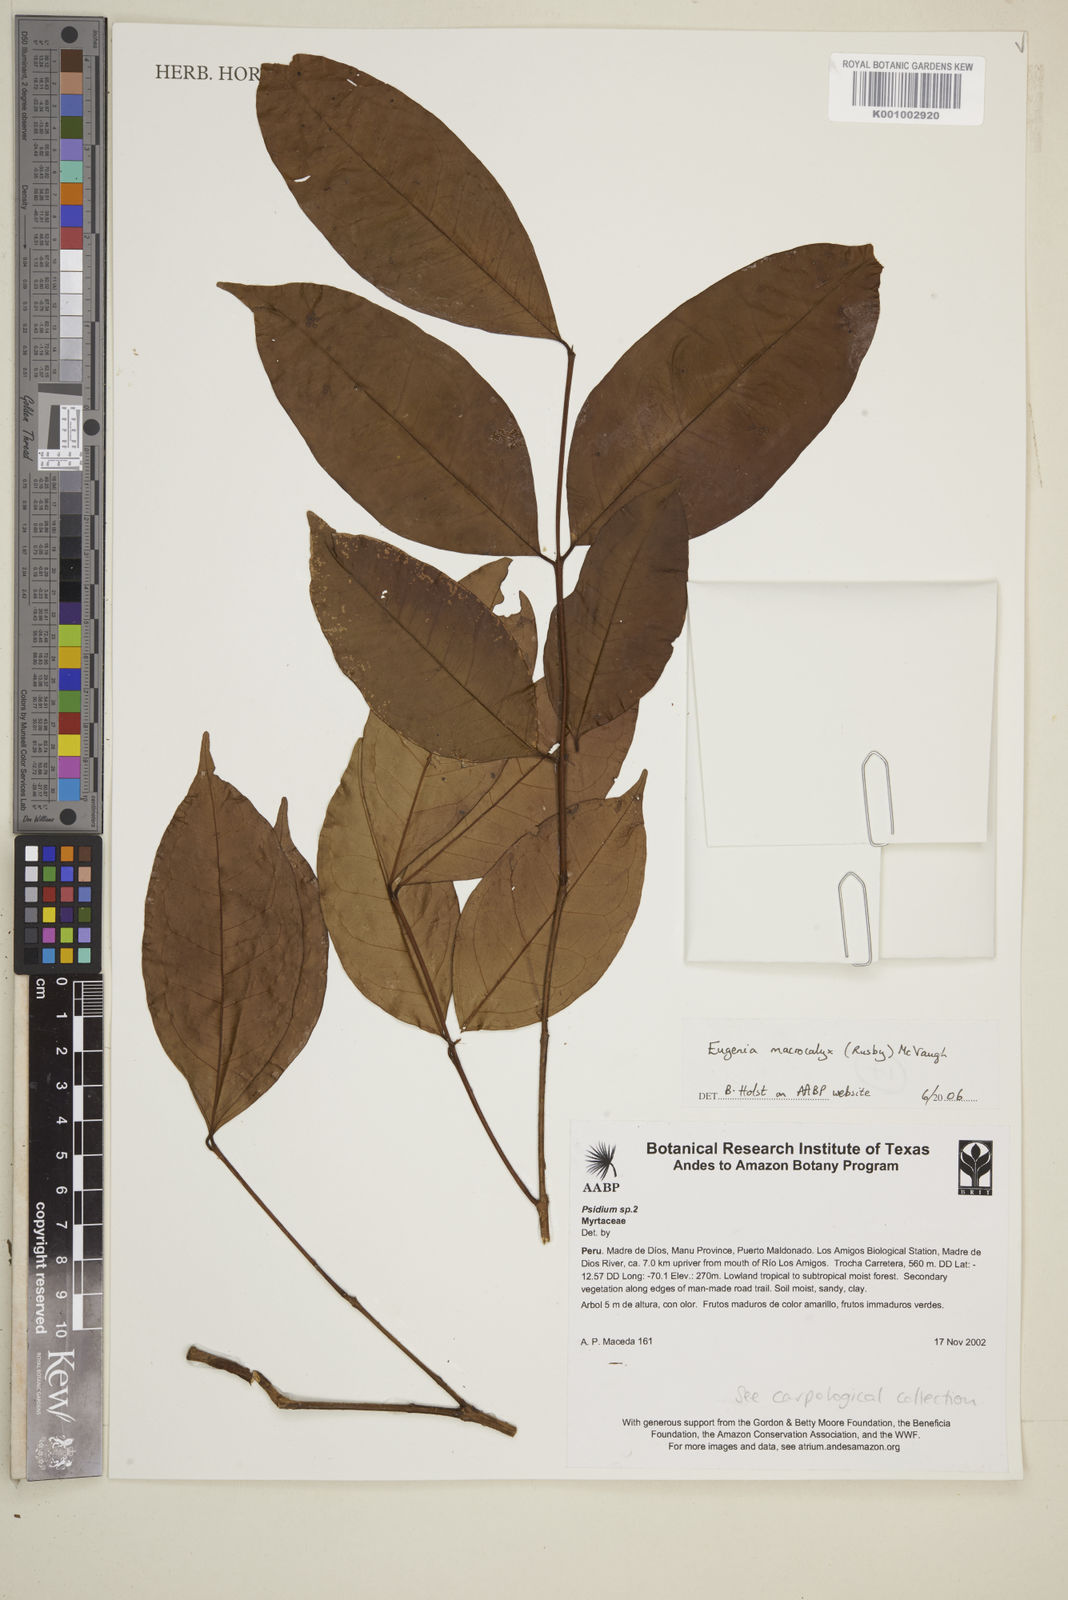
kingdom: Plantae
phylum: Tracheophyta
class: Magnoliopsida
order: Myrtales
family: Myrtaceae
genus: Eugenia
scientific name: Eugenia
